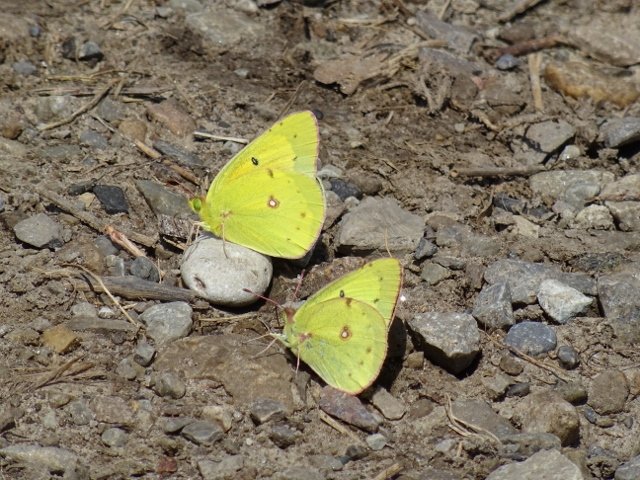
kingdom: Animalia
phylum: Arthropoda
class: Insecta
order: Lepidoptera
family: Pieridae
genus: Colias
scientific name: Colias eurytheme
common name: Orange Sulphur
